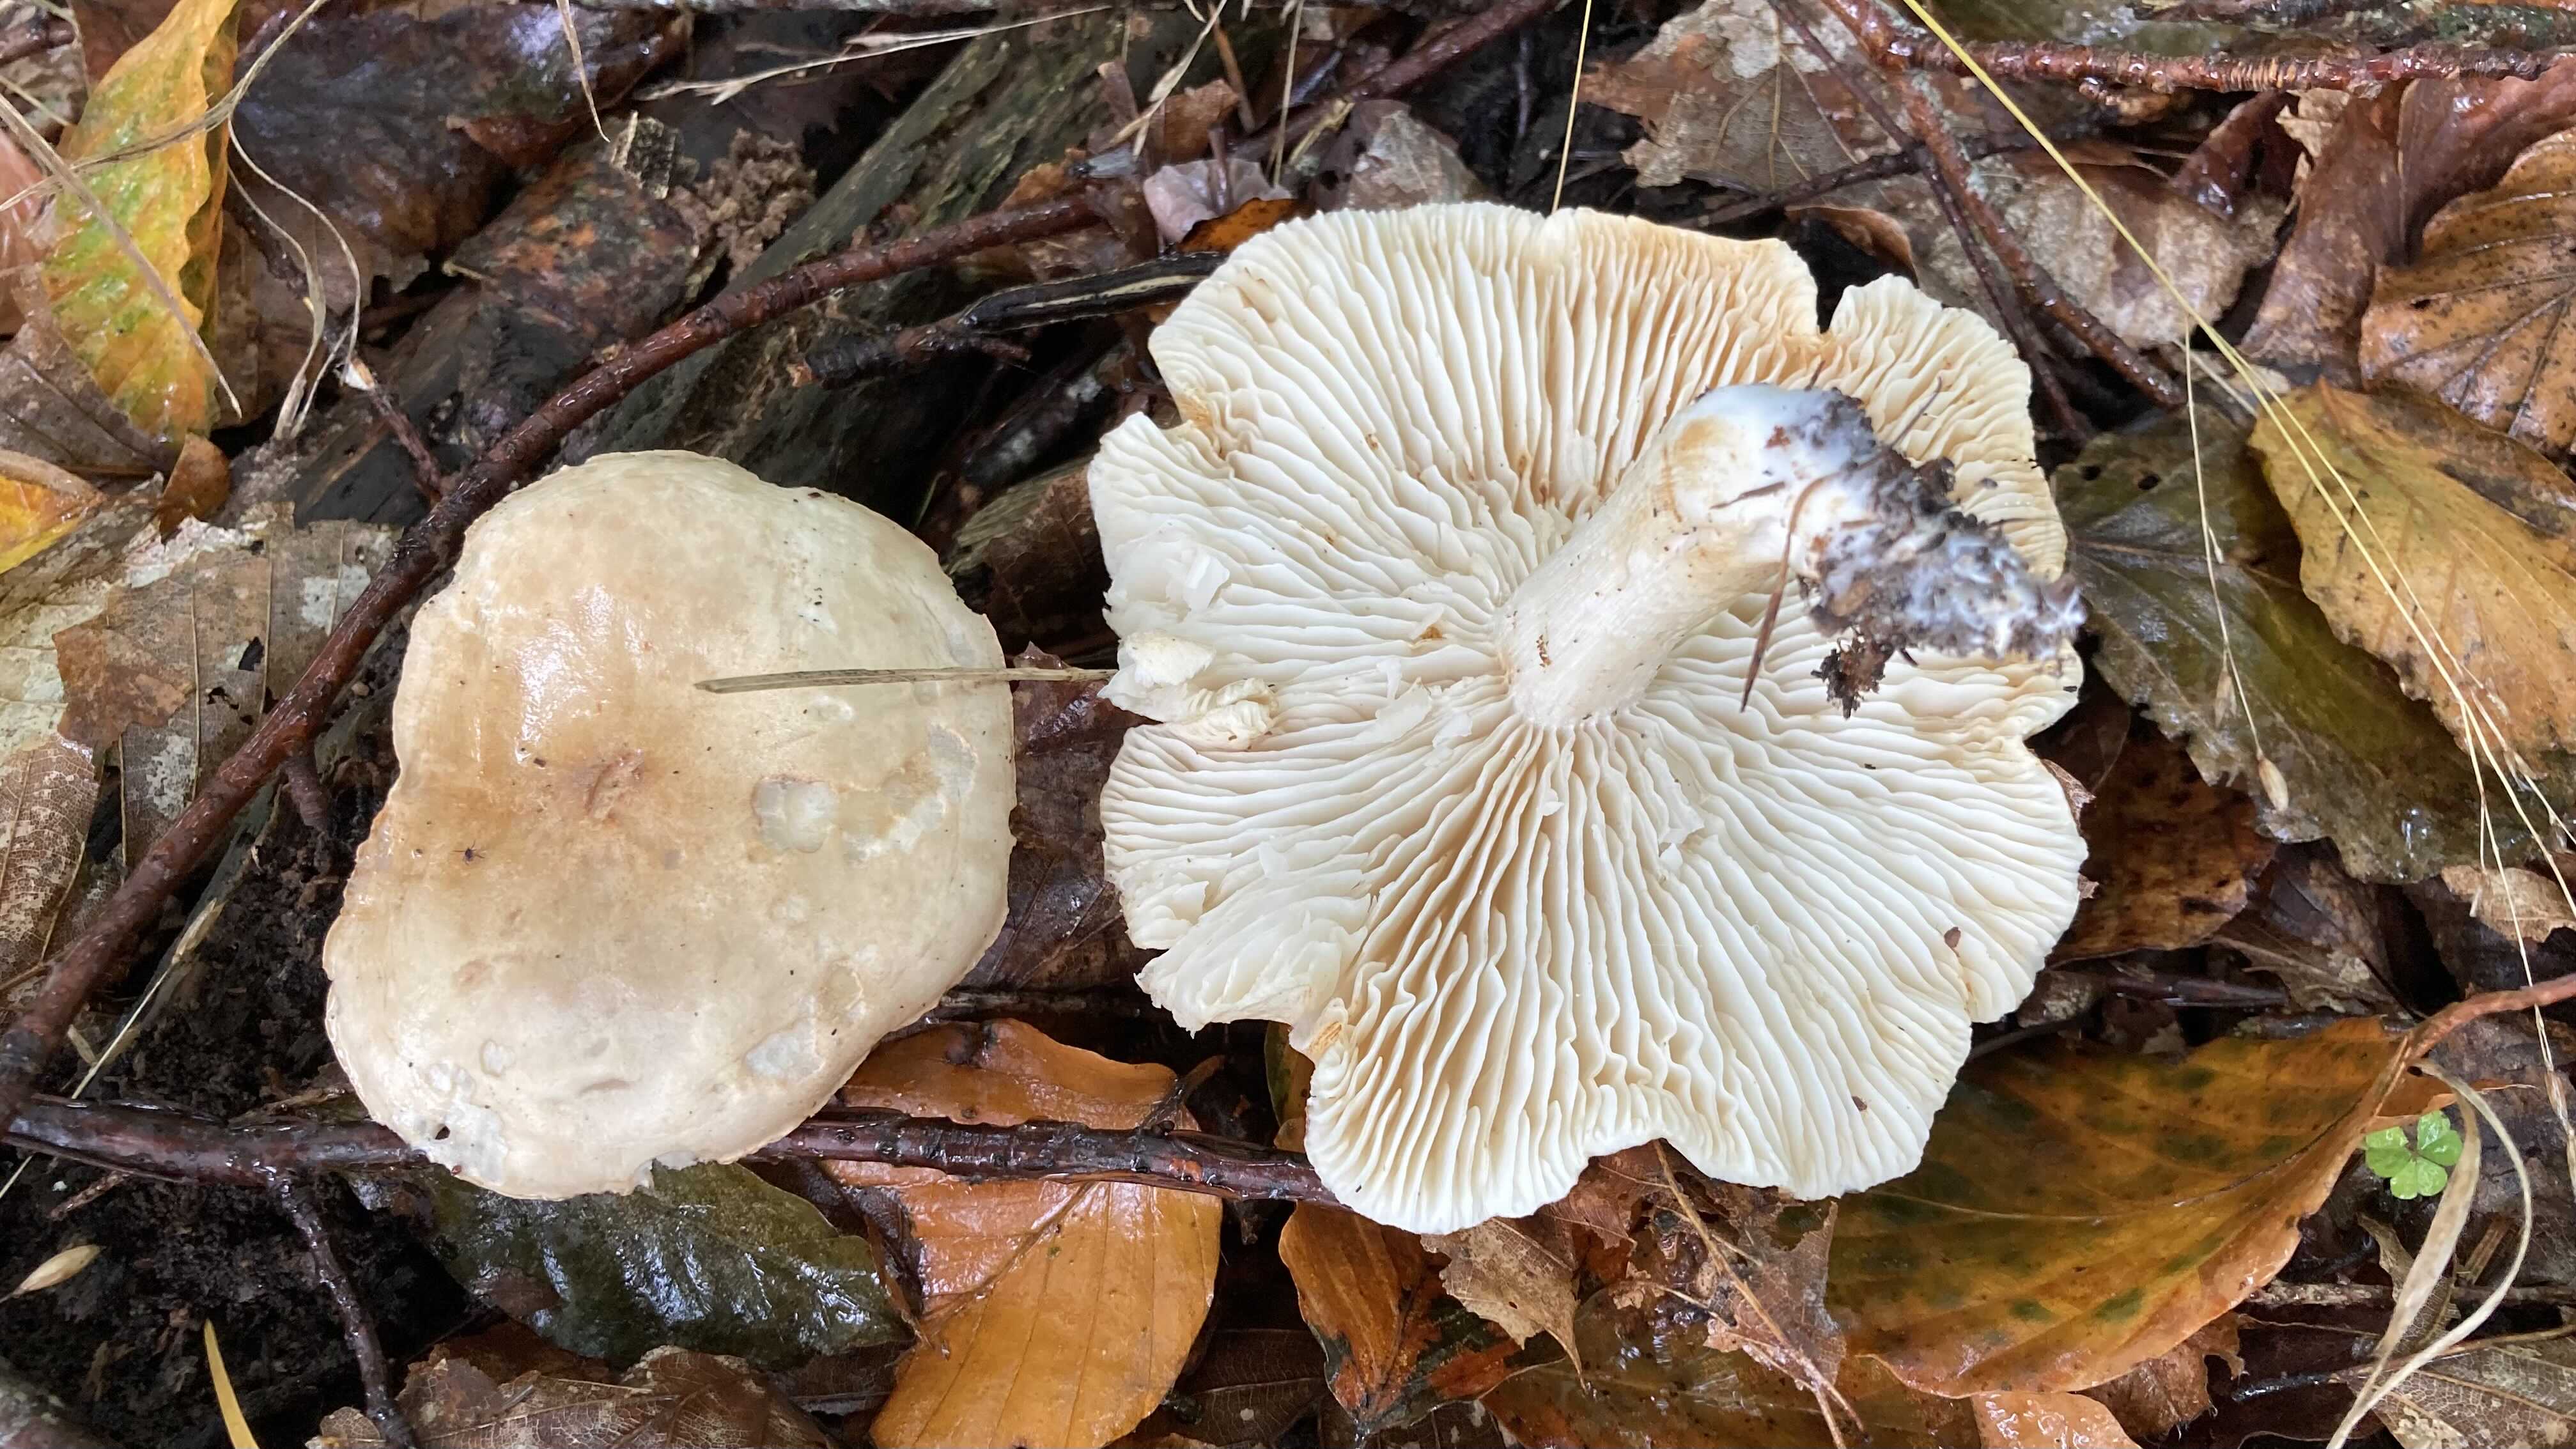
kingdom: Fungi
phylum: Basidiomycota
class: Agaricomycetes
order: Agaricales
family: Tricholomataceae
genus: Tricholoma
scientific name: Tricholoma lascivum
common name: stinkende ridderhat
